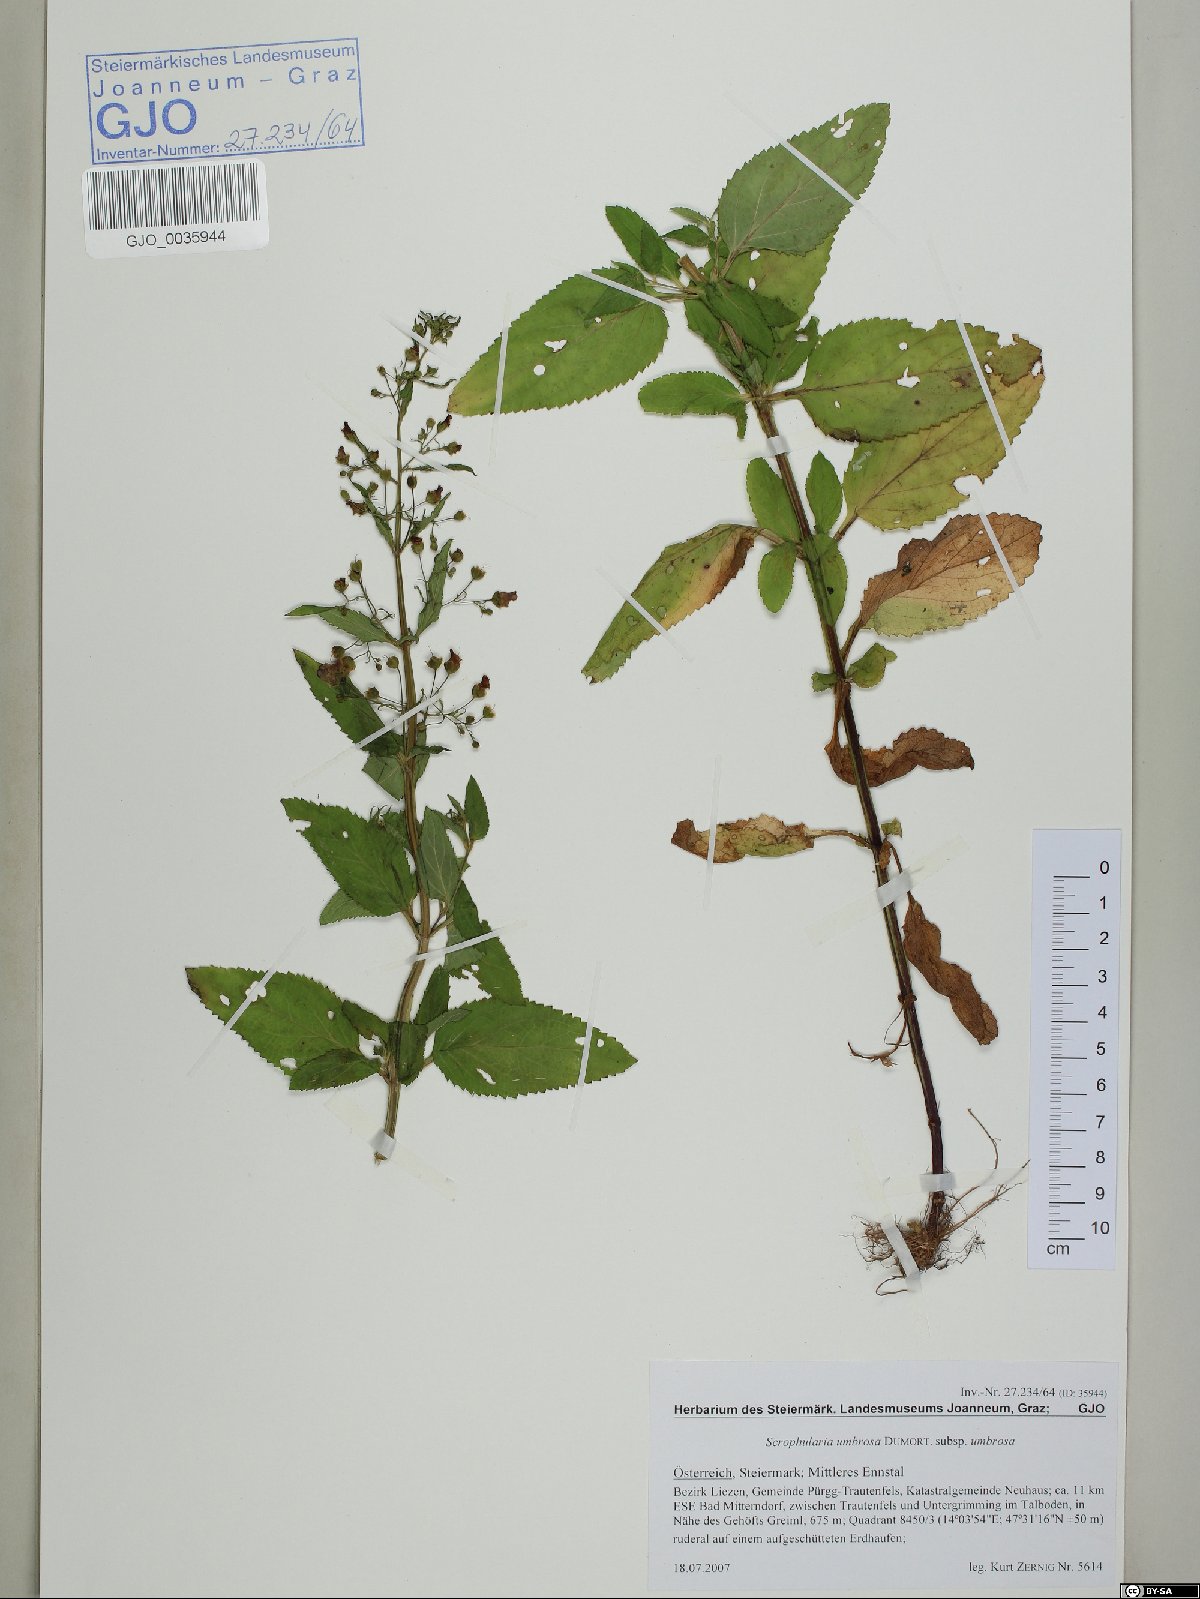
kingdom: Plantae
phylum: Tracheophyta
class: Magnoliopsida
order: Lamiales
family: Scrophulariaceae
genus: Scrophularia
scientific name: Scrophularia umbrosa
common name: Green figwort
